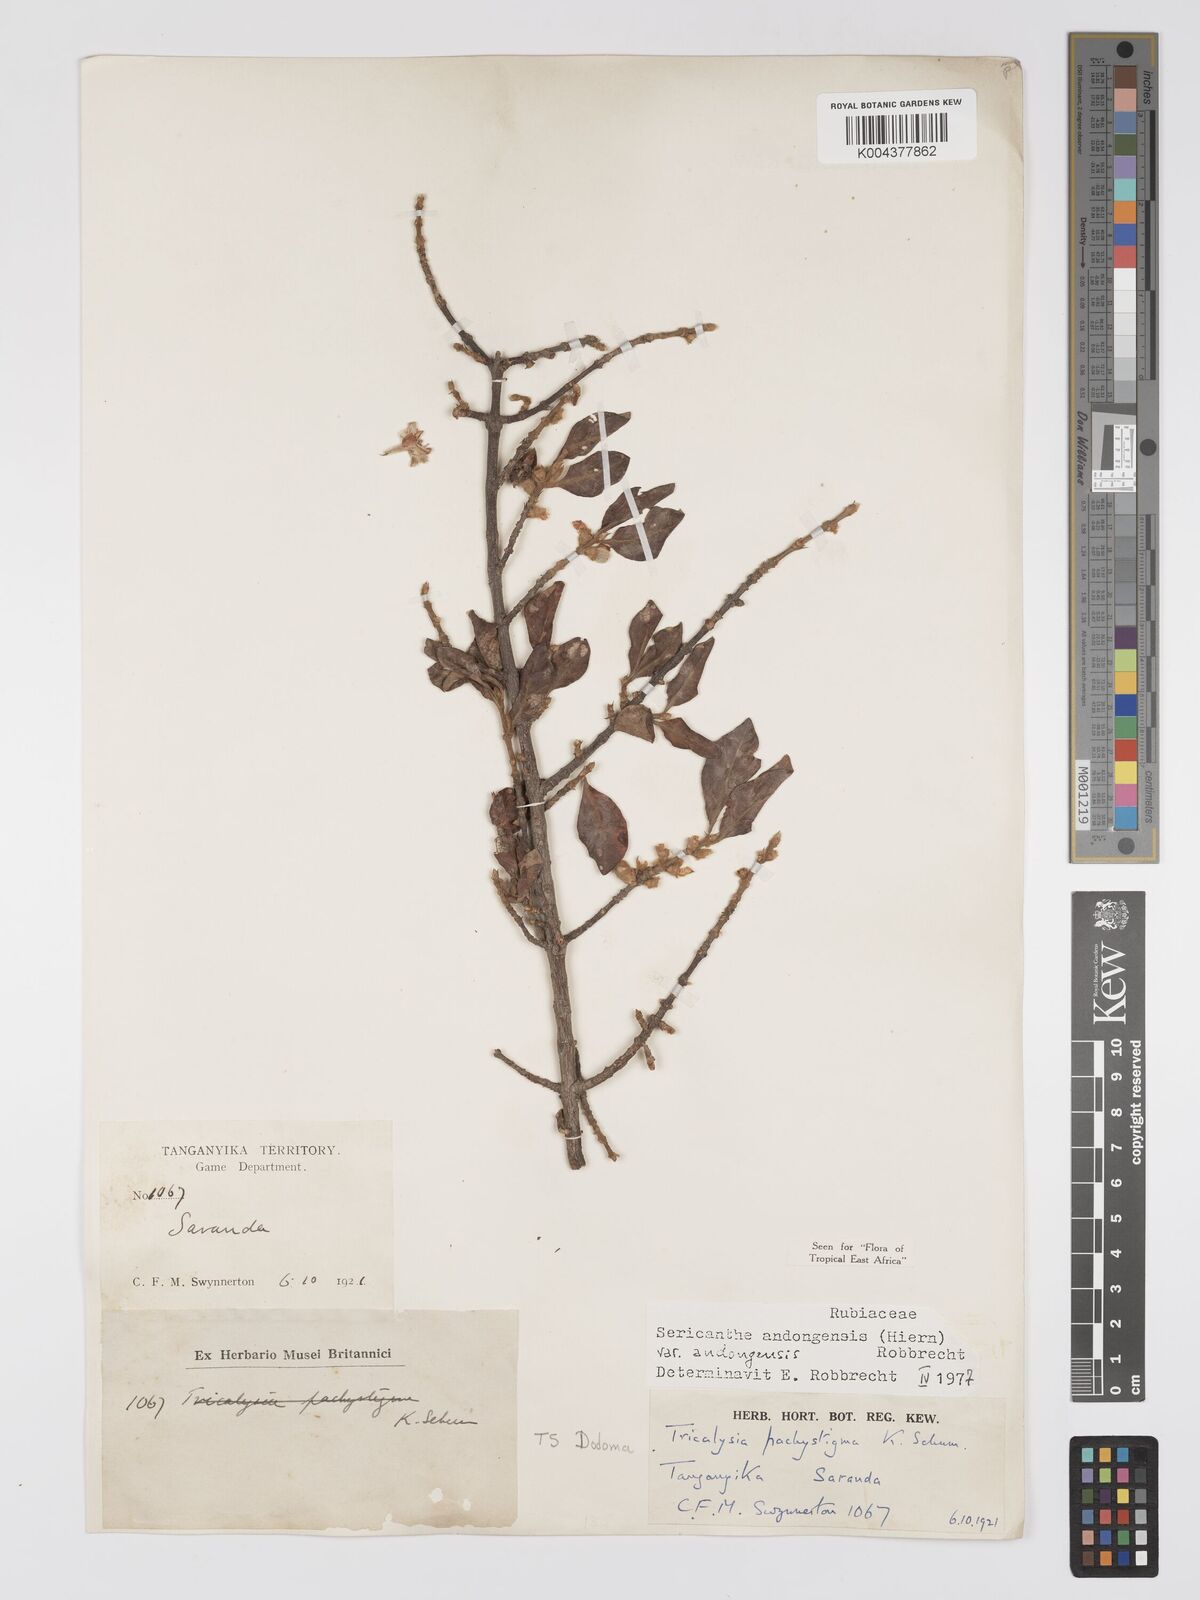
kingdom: Plantae
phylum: Tracheophyta
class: Magnoliopsida
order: Gentianales
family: Rubiaceae
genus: Sericanthe
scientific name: Sericanthe andongensis
